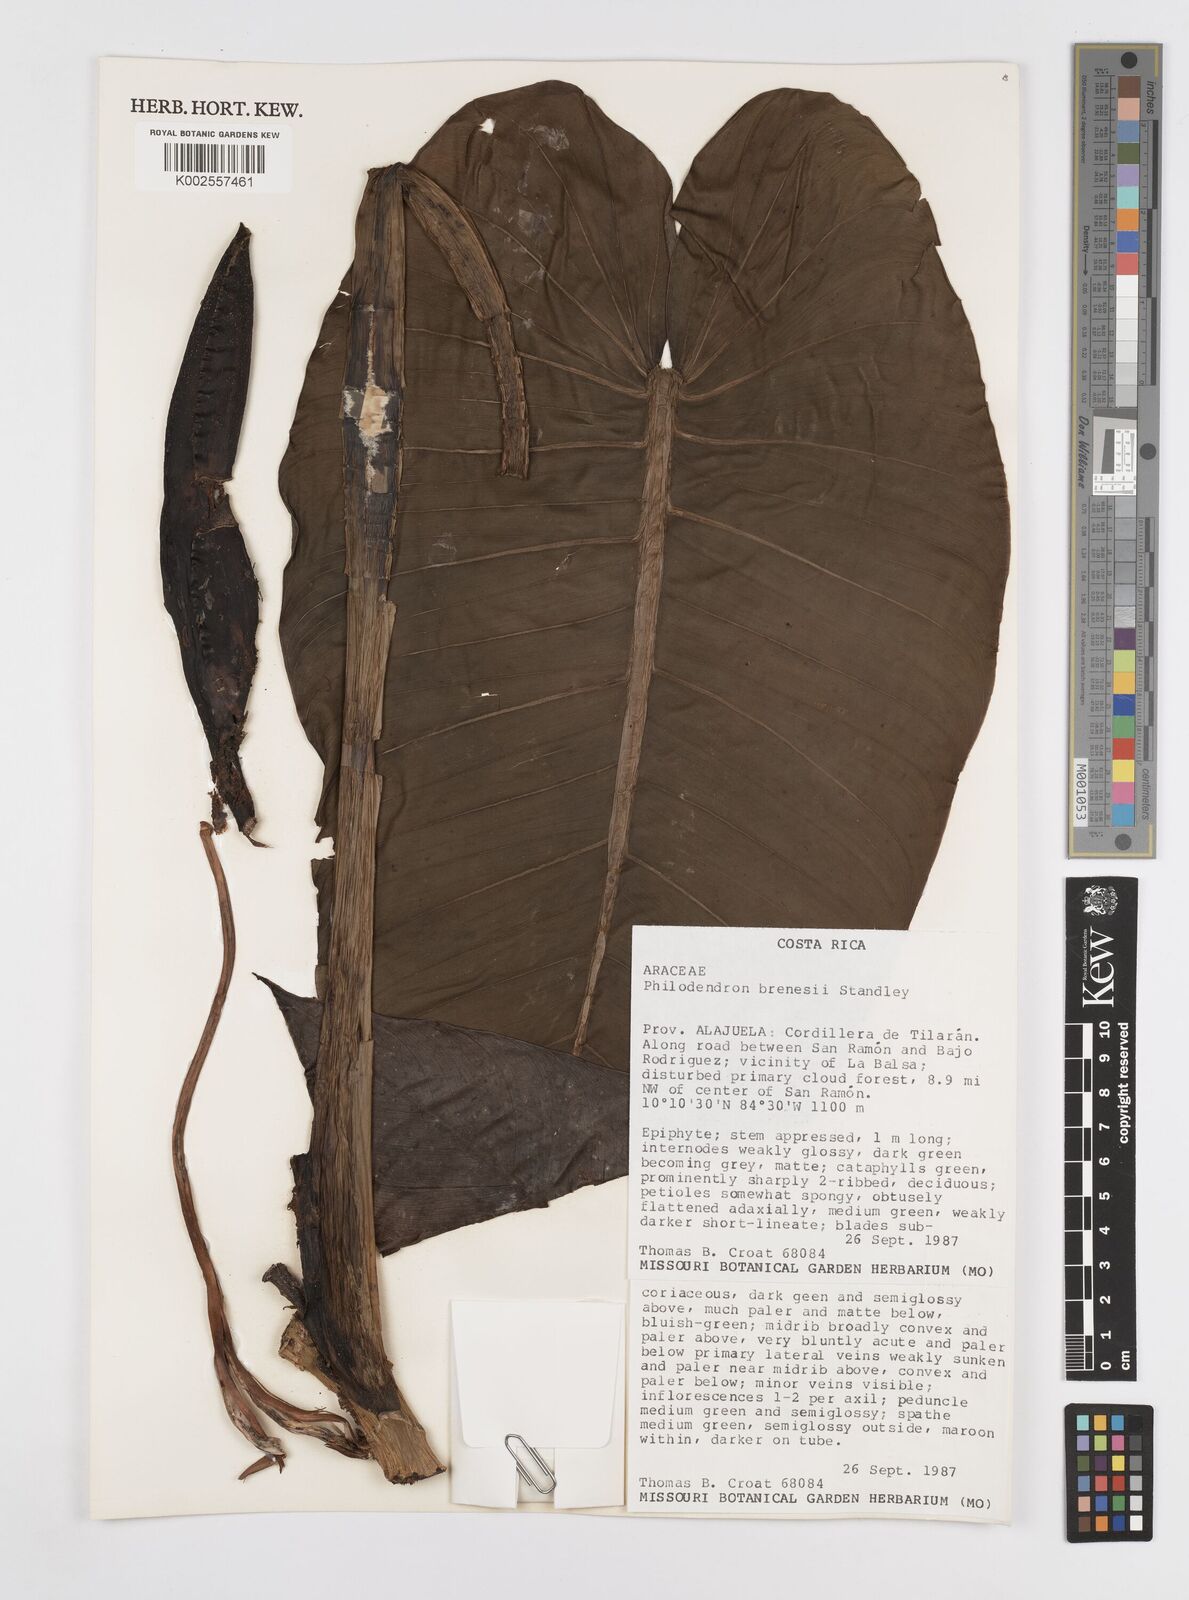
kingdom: Plantae
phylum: Tracheophyta
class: Liliopsida
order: Alismatales
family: Araceae
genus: Philodendron
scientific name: Philodendron brenesii
